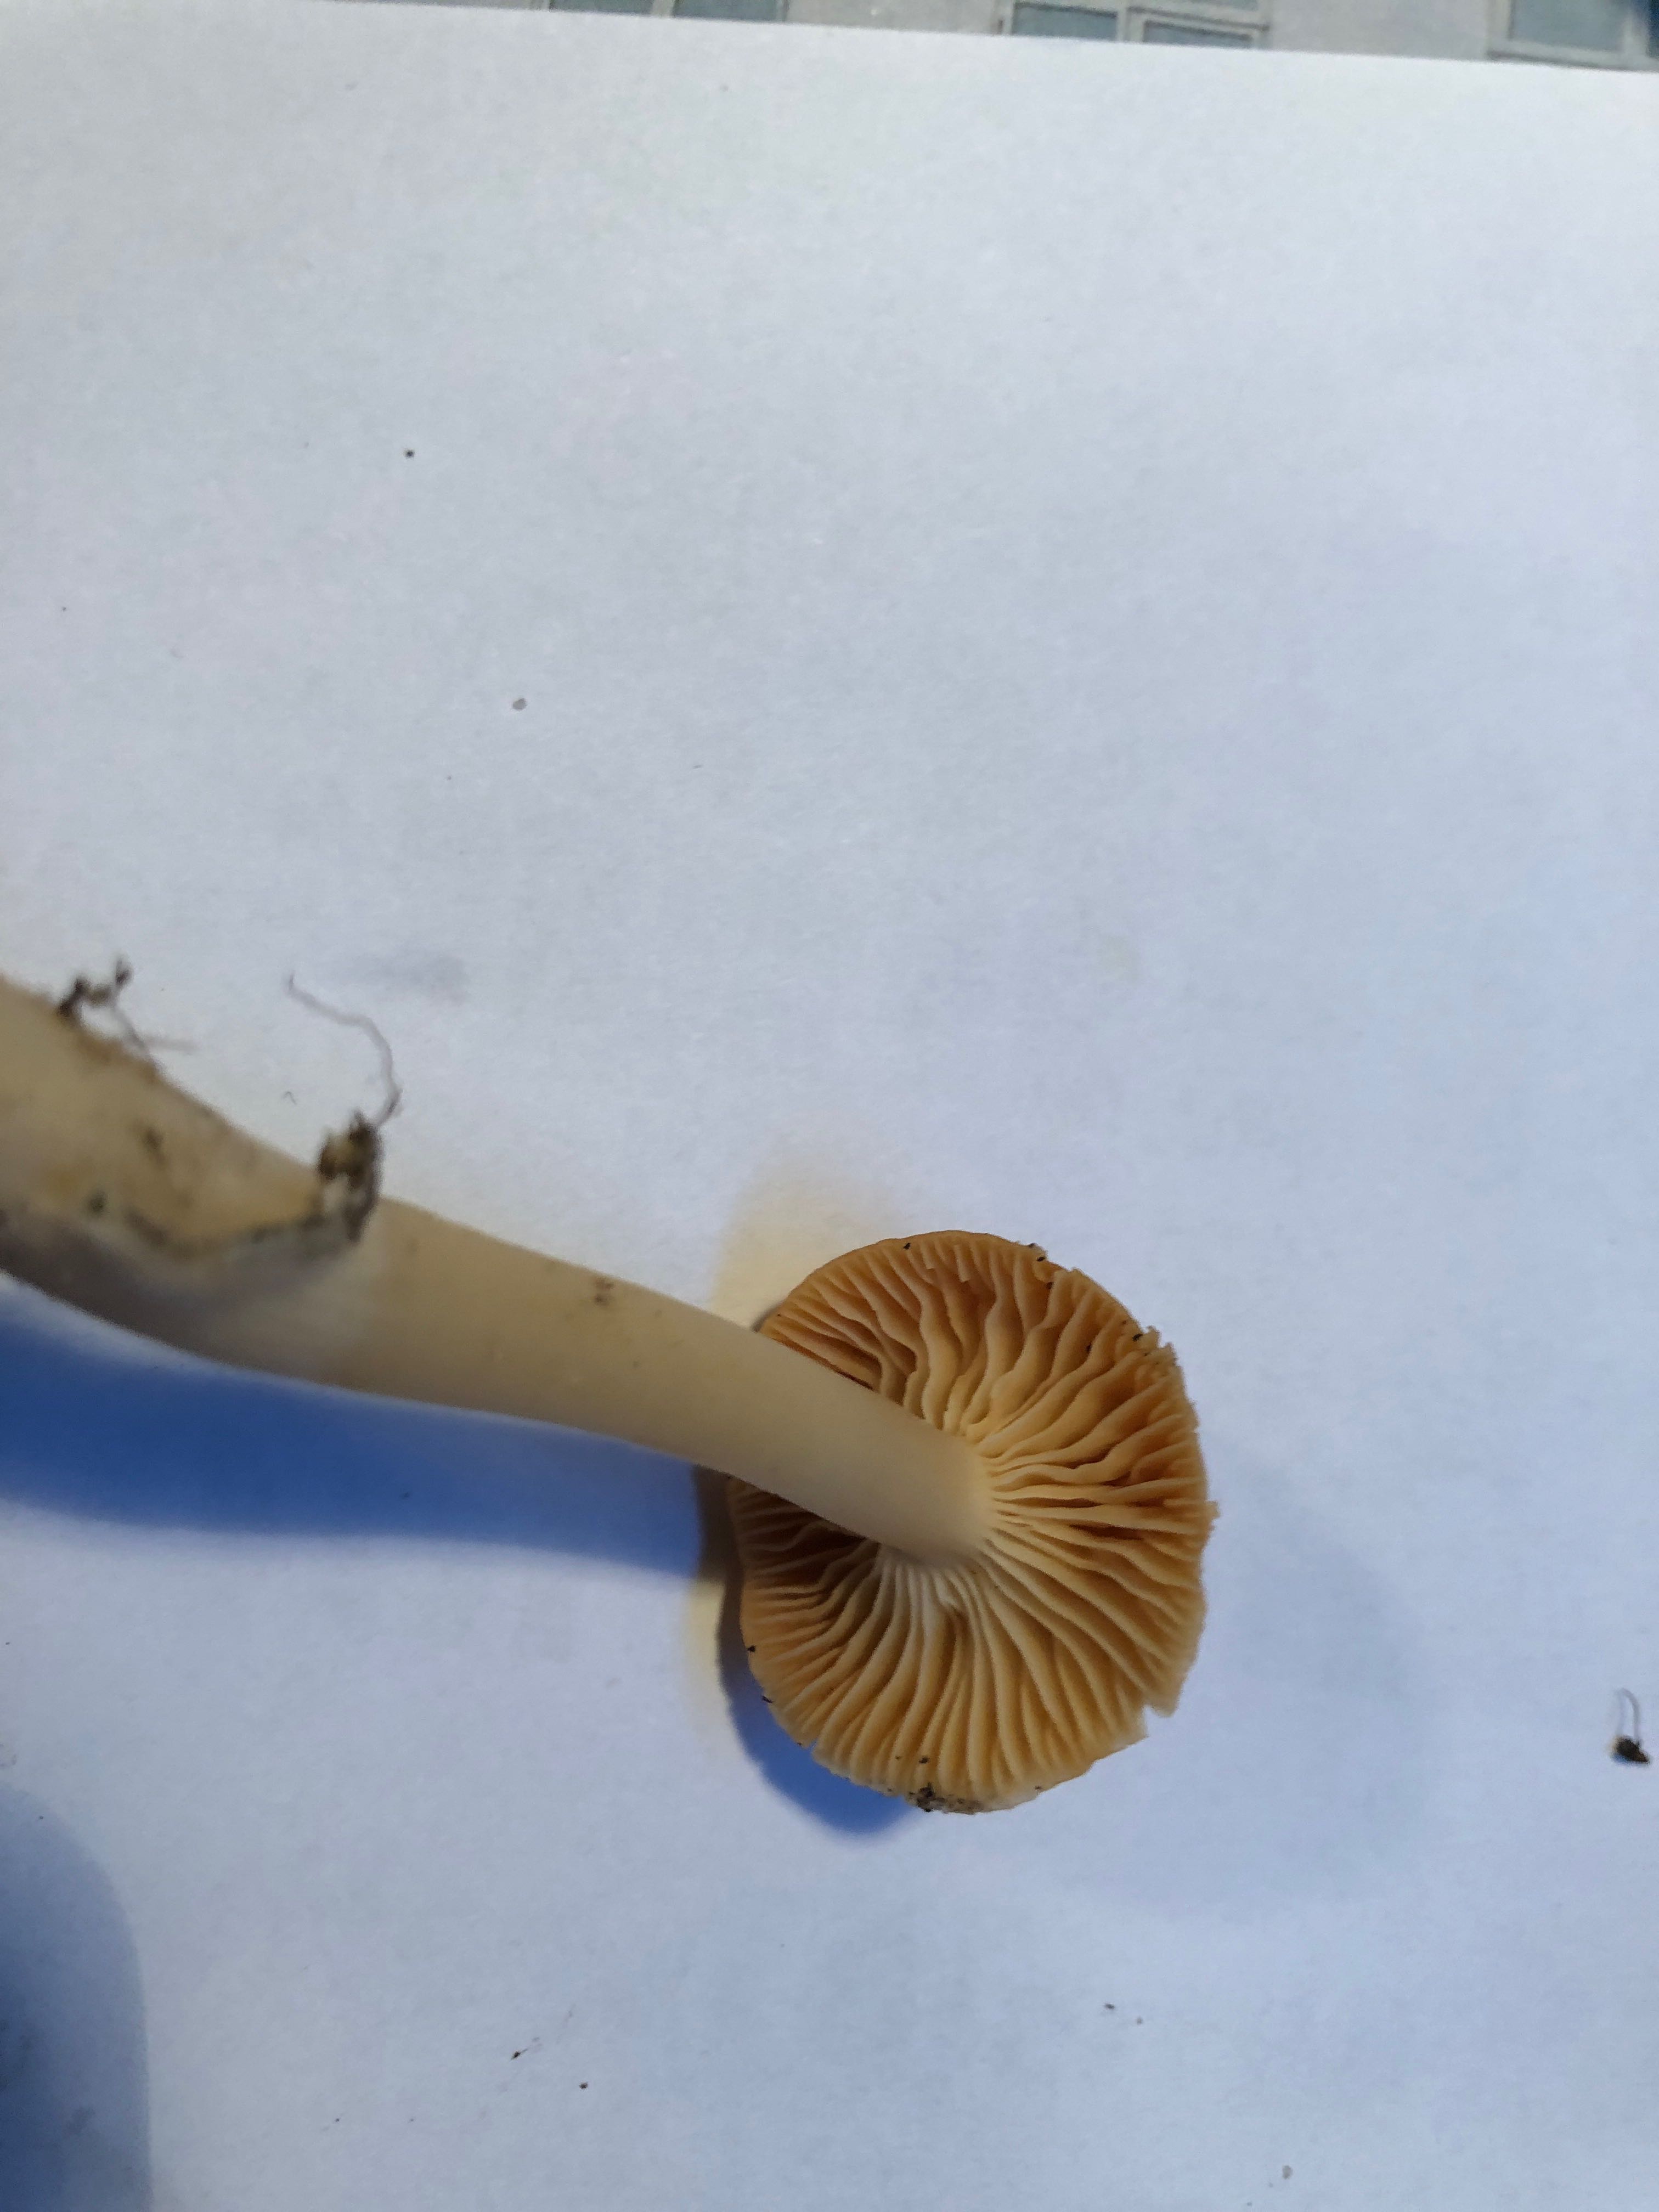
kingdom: Fungi
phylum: Basidiomycota
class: Agaricomycetes
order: Agaricales
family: Hygrophoraceae
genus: Cuphophyllus
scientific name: Cuphophyllus pratensis
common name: eng-vokshat
